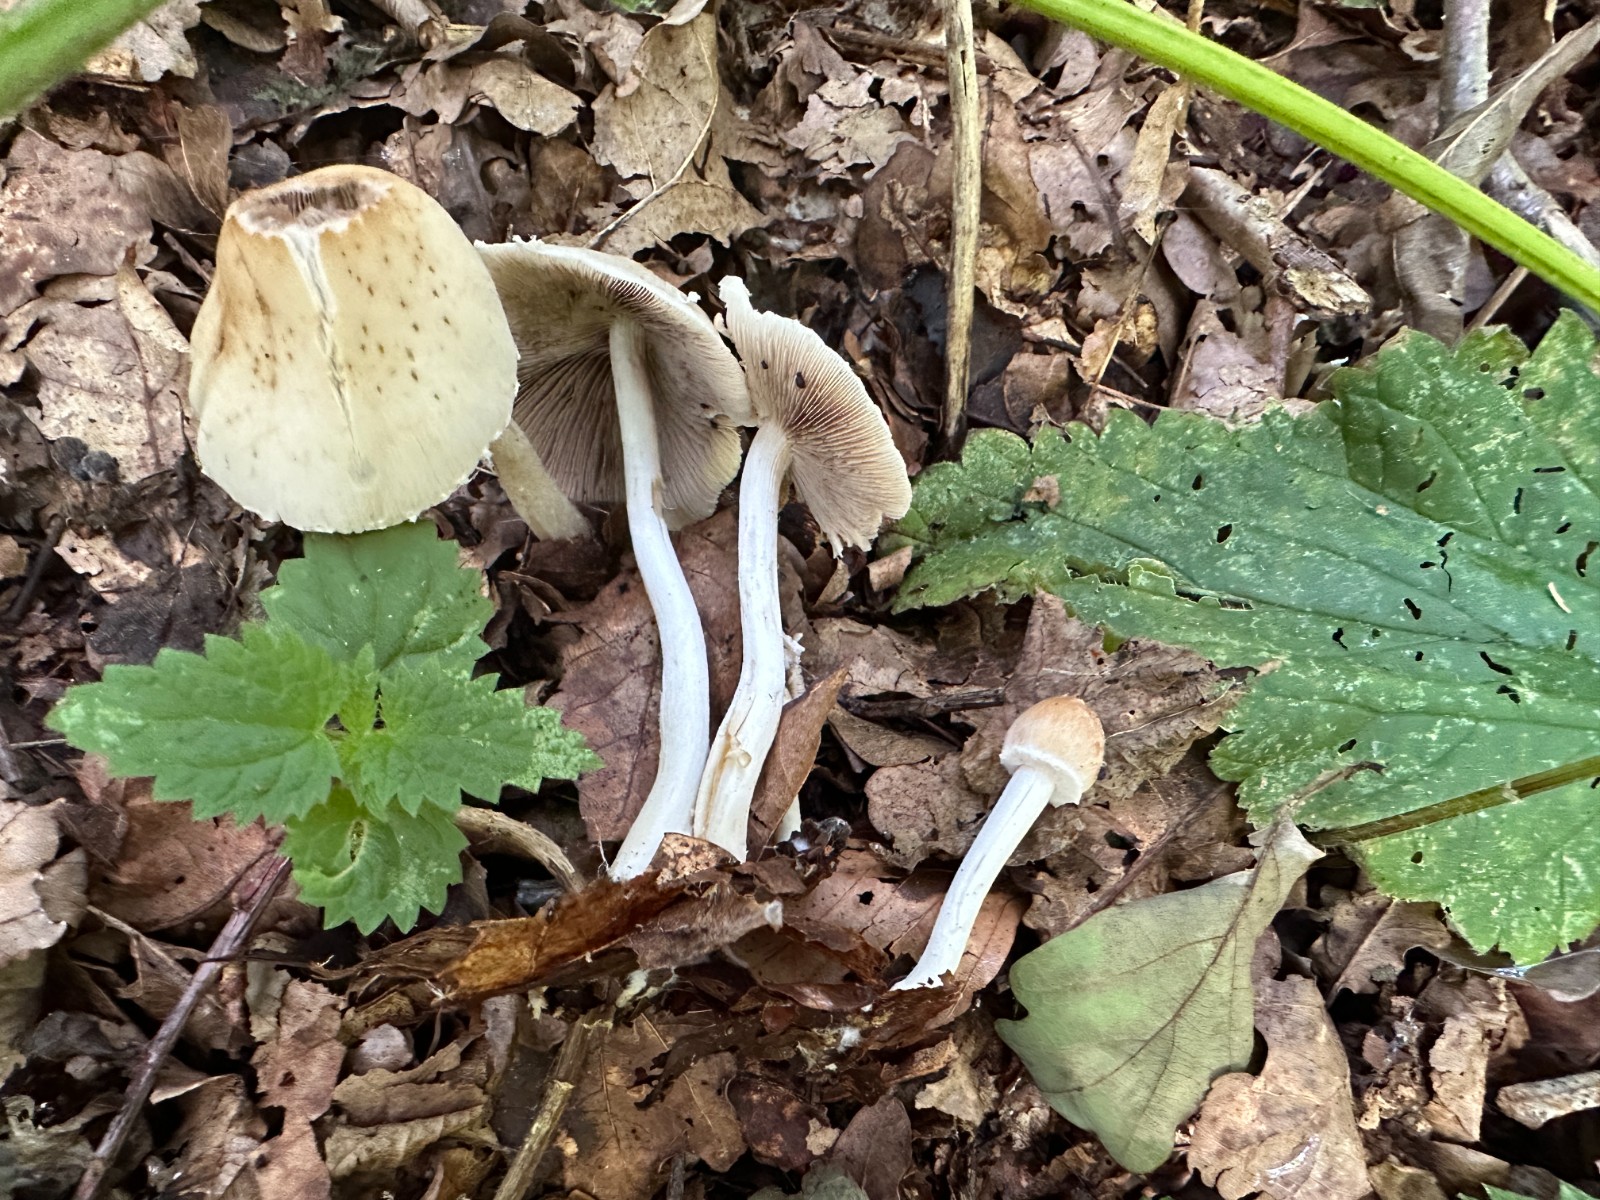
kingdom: Fungi
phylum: Basidiomycota
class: Agaricomycetes
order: Agaricales
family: Psathyrellaceae
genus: Candolleomyces
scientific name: Candolleomyces candolleanus
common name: Candolles mørkhat
